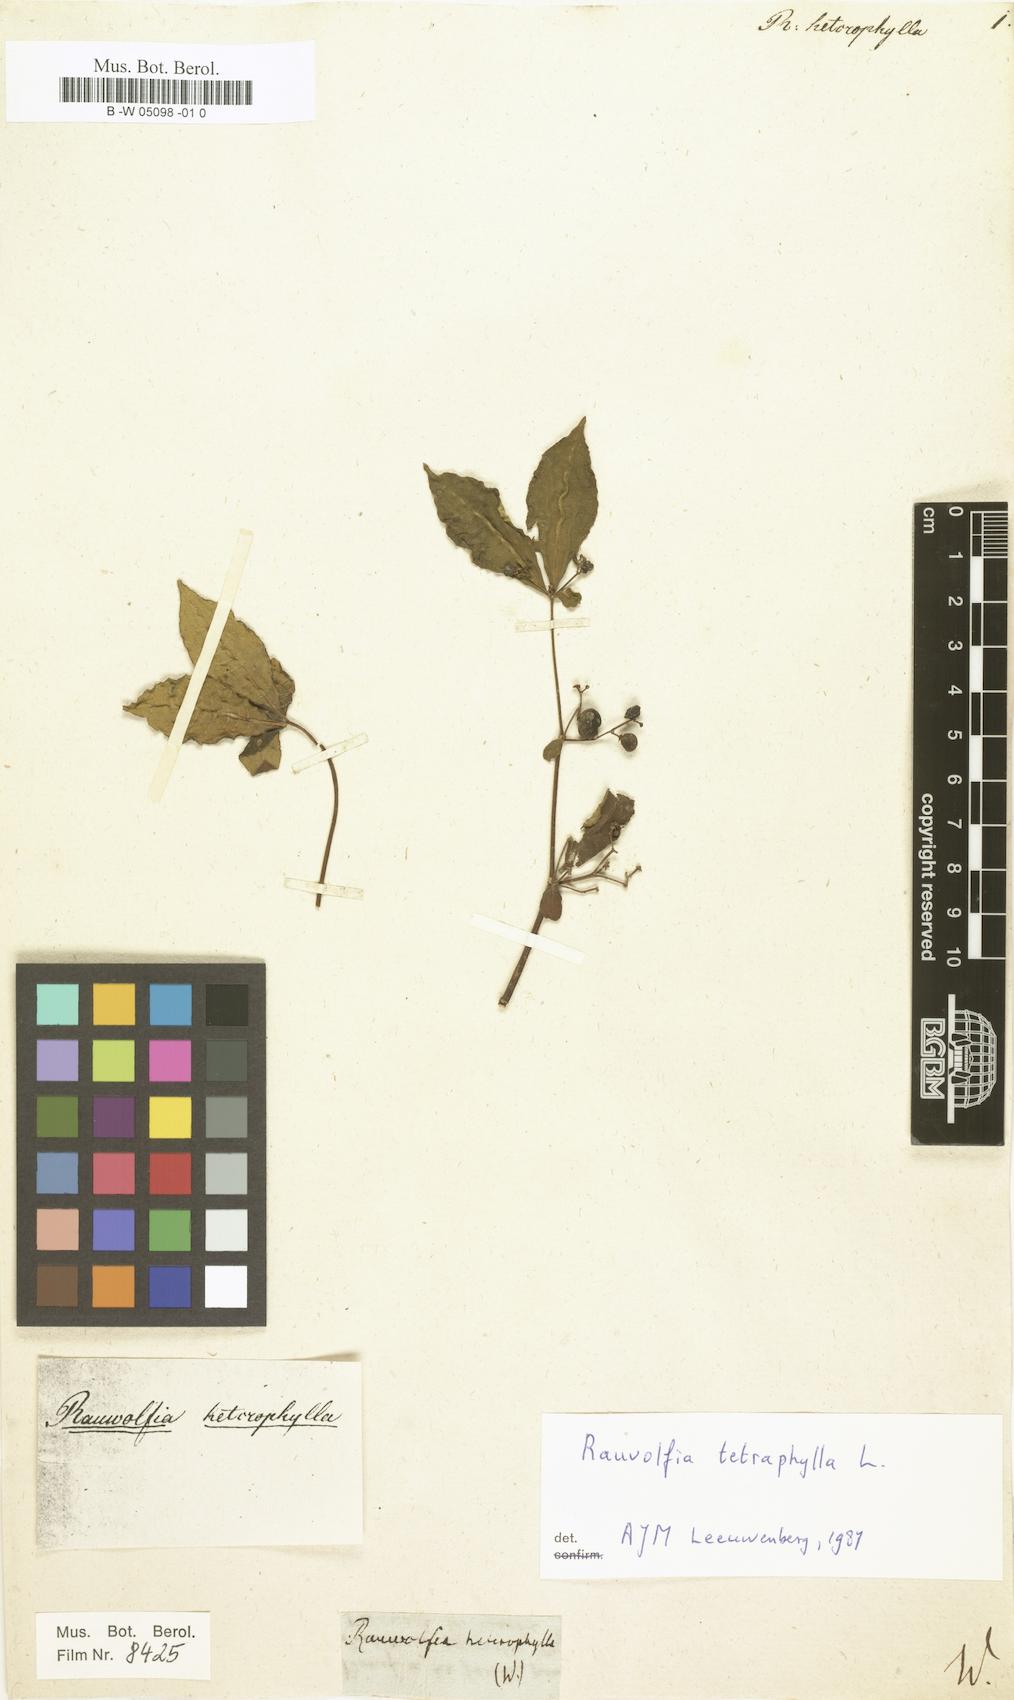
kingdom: Plantae
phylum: Tracheophyta
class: Magnoliopsida
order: Gentianales
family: Apocynaceae
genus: Rauvolfia
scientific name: Rauvolfia tetraphylla
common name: Four-leaf devil-pepper
